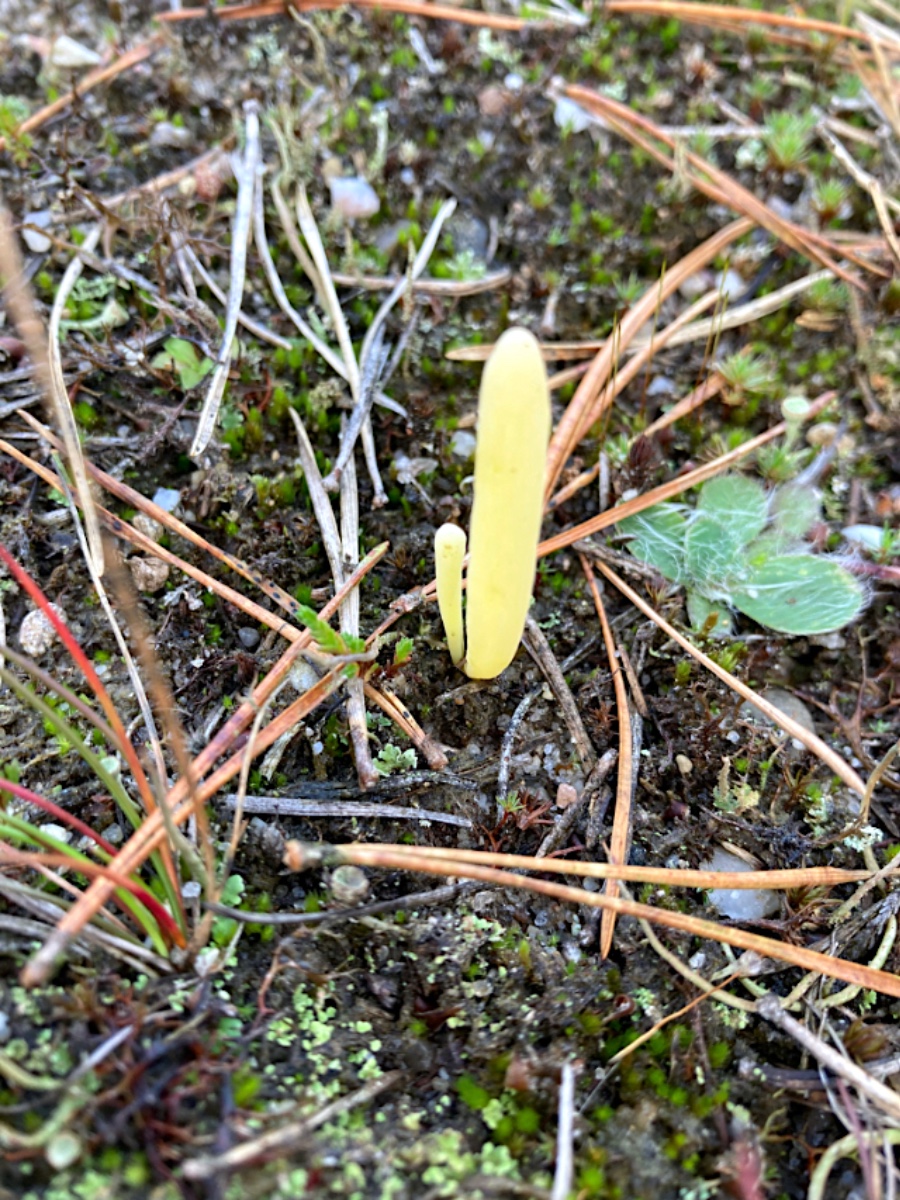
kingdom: Fungi
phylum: Basidiomycota
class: Agaricomycetes
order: Agaricales
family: Clavariaceae
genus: Clavaria
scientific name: Clavaria argillacea
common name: lerfarvet køllesvamp
